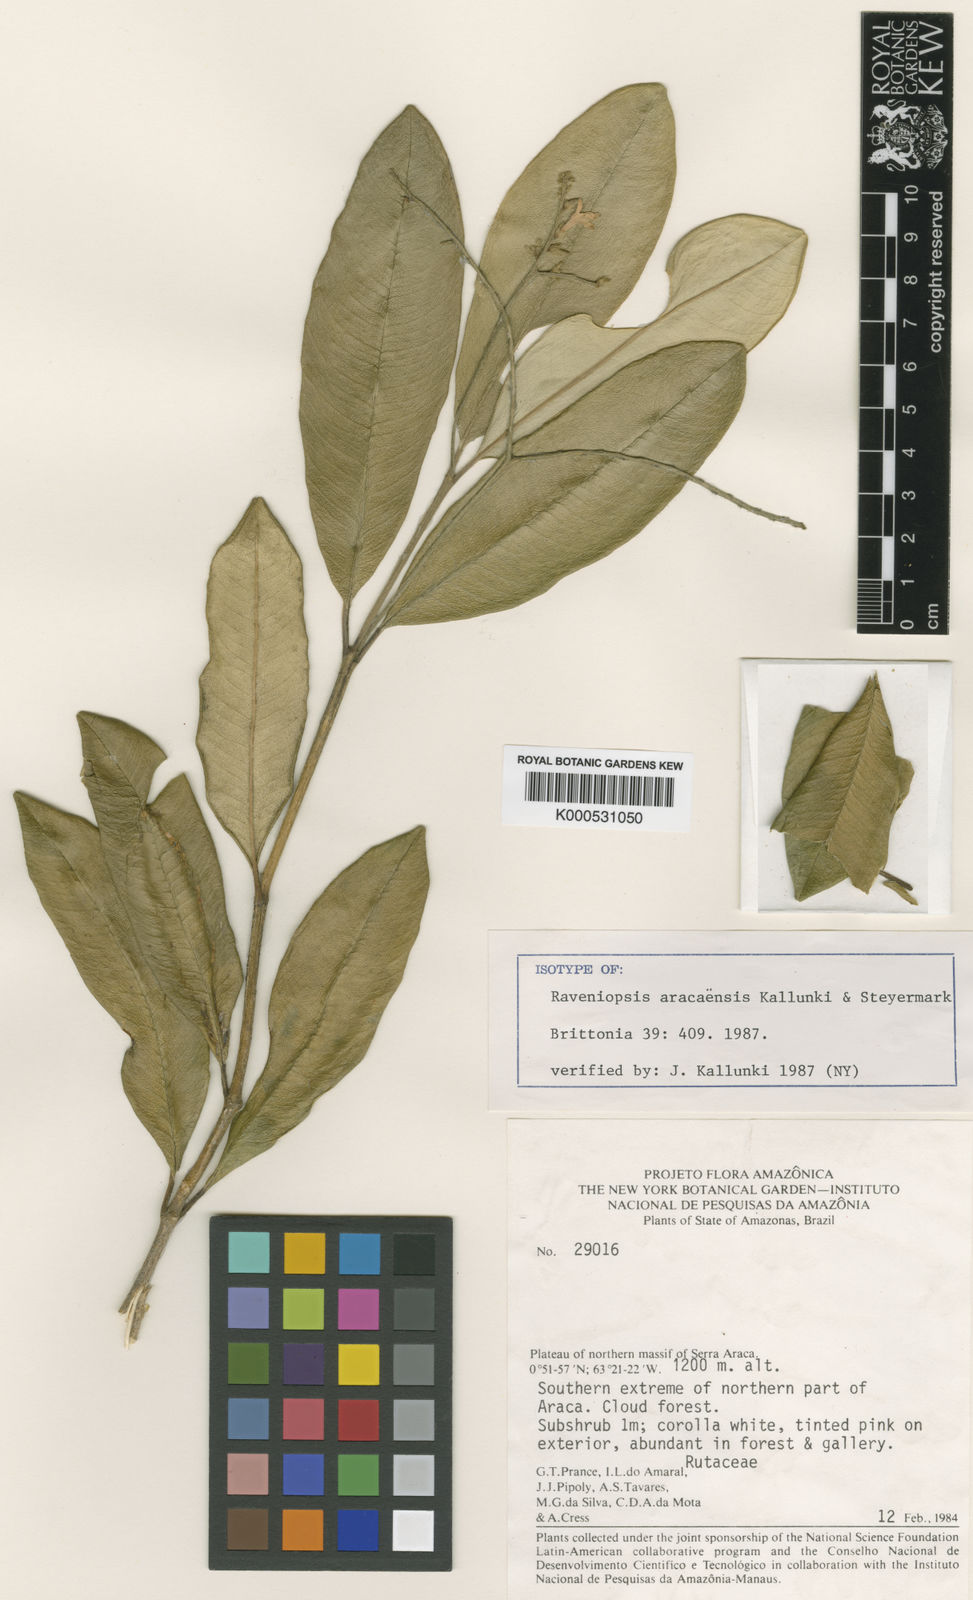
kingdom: Plantae
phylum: Tracheophyta
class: Magnoliopsida
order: Sapindales
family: Rutaceae
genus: Raveniopsis
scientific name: Raveniopsis aracaensis
